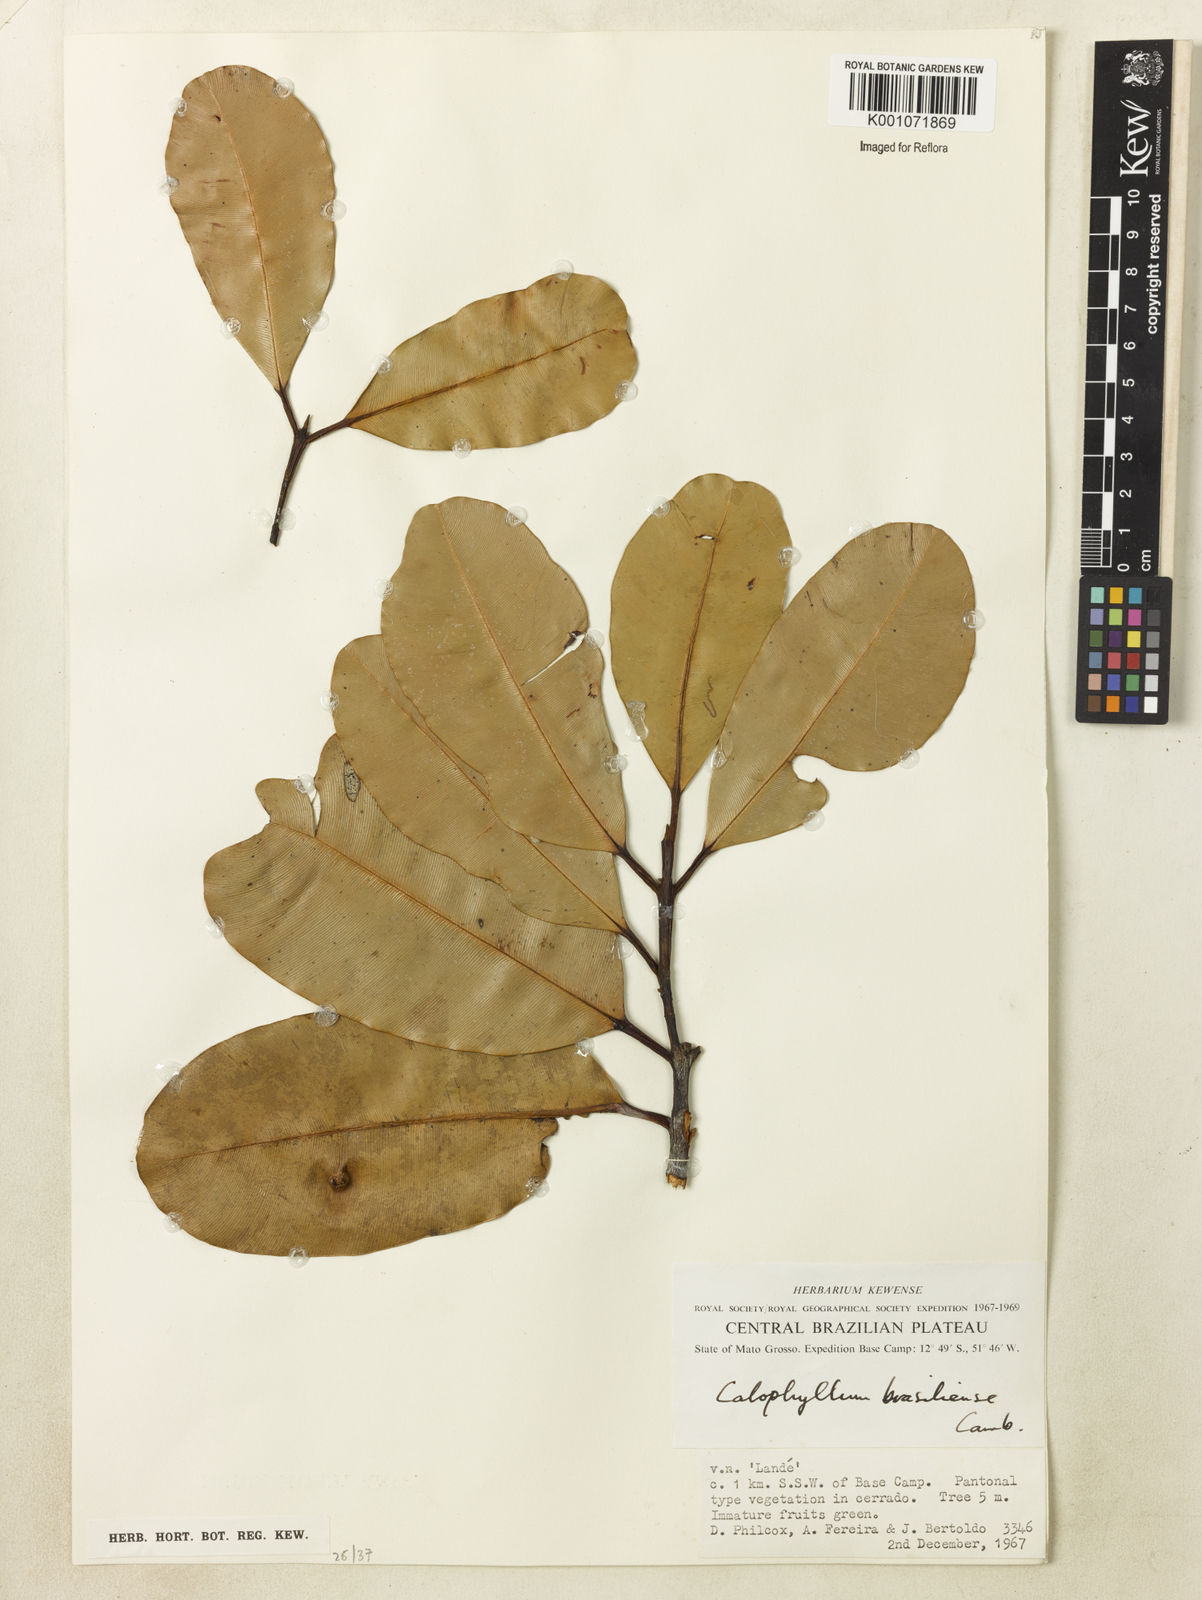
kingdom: Plantae
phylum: Tracheophyta
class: Magnoliopsida
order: Malpighiales
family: Calophyllaceae
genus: Calophyllum
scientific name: Calophyllum brasiliense
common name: Santa maria
